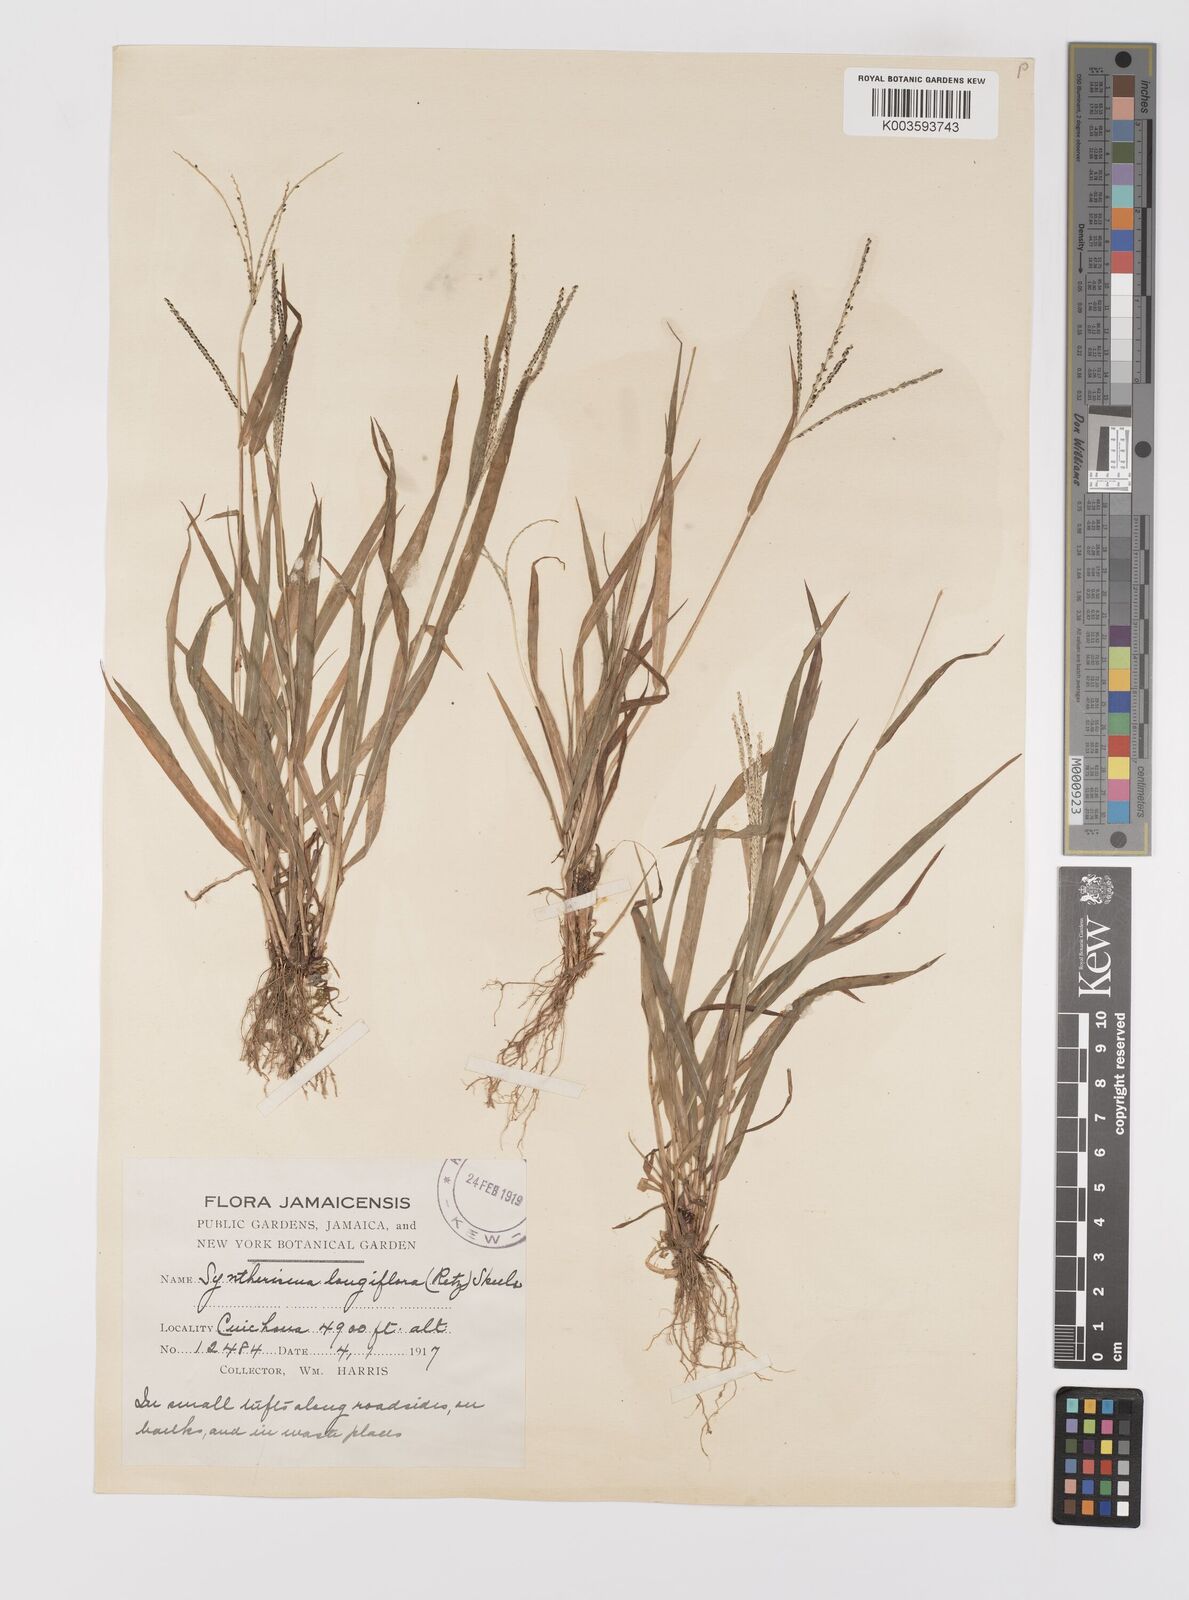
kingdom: Plantae
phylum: Tracheophyta
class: Liliopsida
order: Poales
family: Poaceae
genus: Digitaria
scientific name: Digitaria violascens
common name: Violet crabgrass
